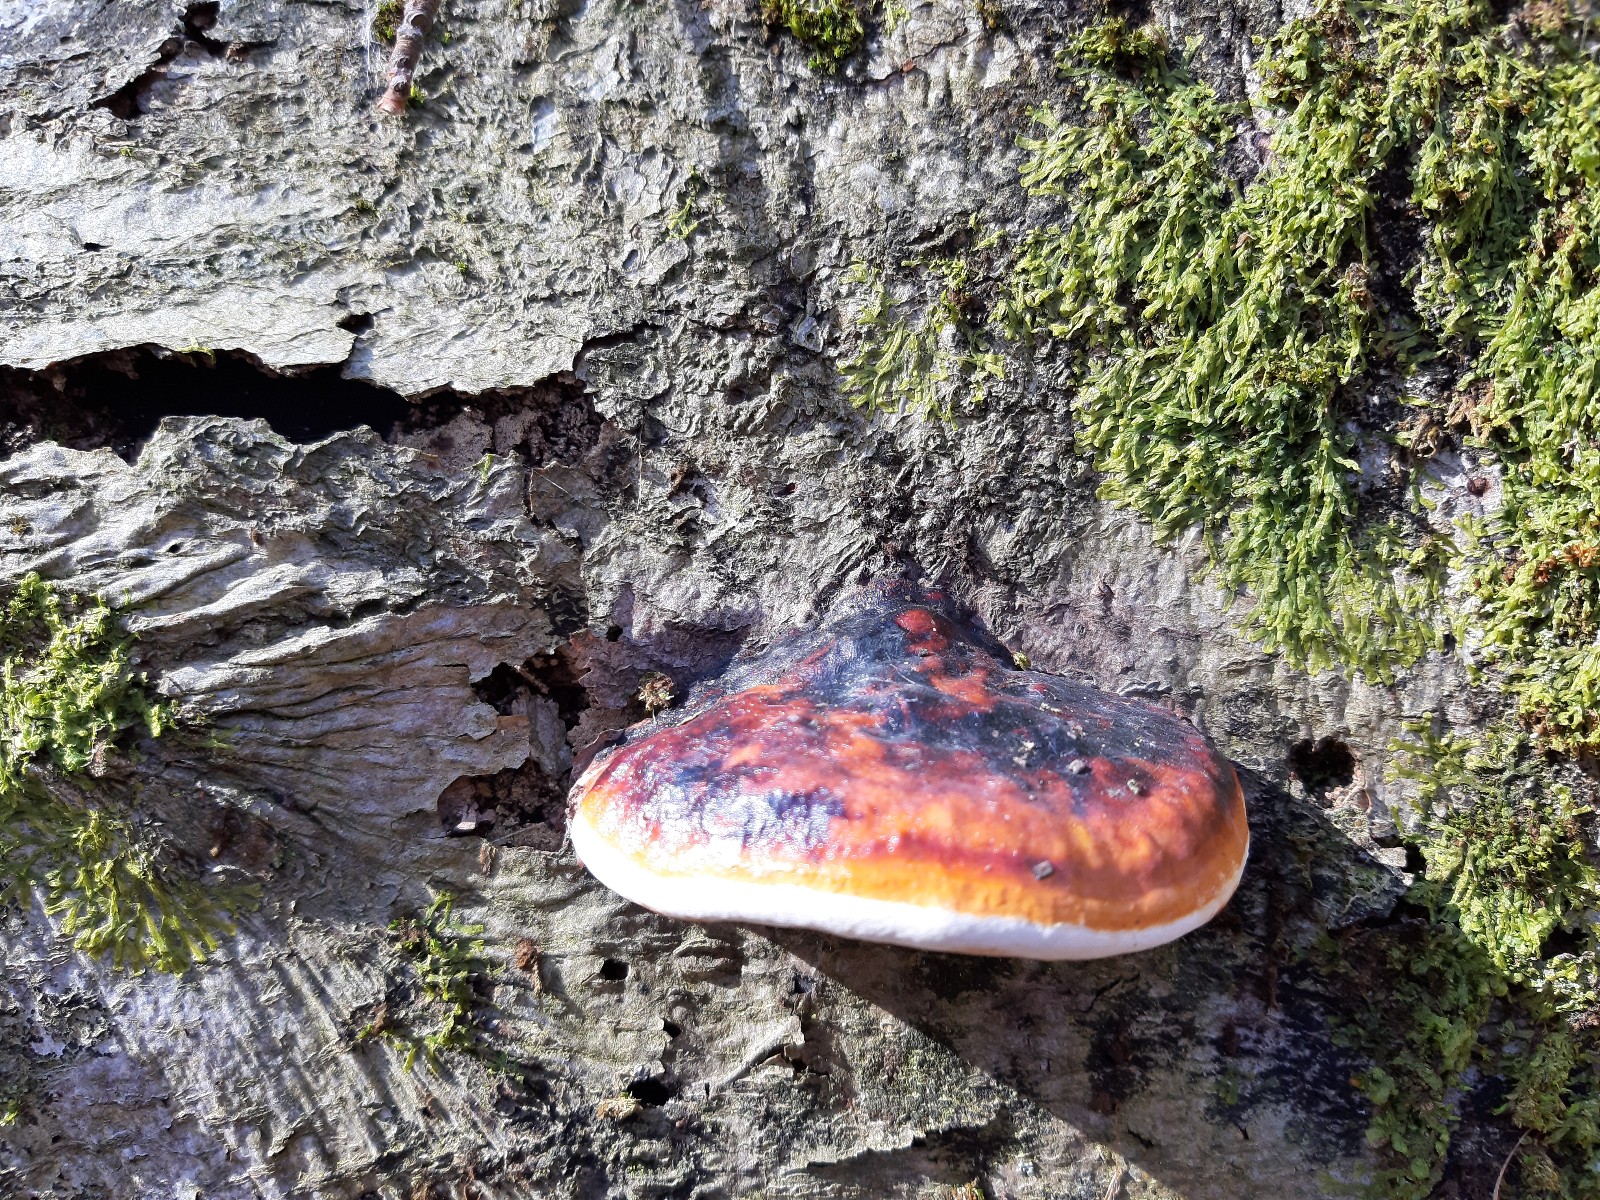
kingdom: Fungi
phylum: Basidiomycota
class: Agaricomycetes
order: Polyporales
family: Fomitopsidaceae
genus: Fomitopsis
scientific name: Fomitopsis pinicola
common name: randbæltet hovporesvamp
